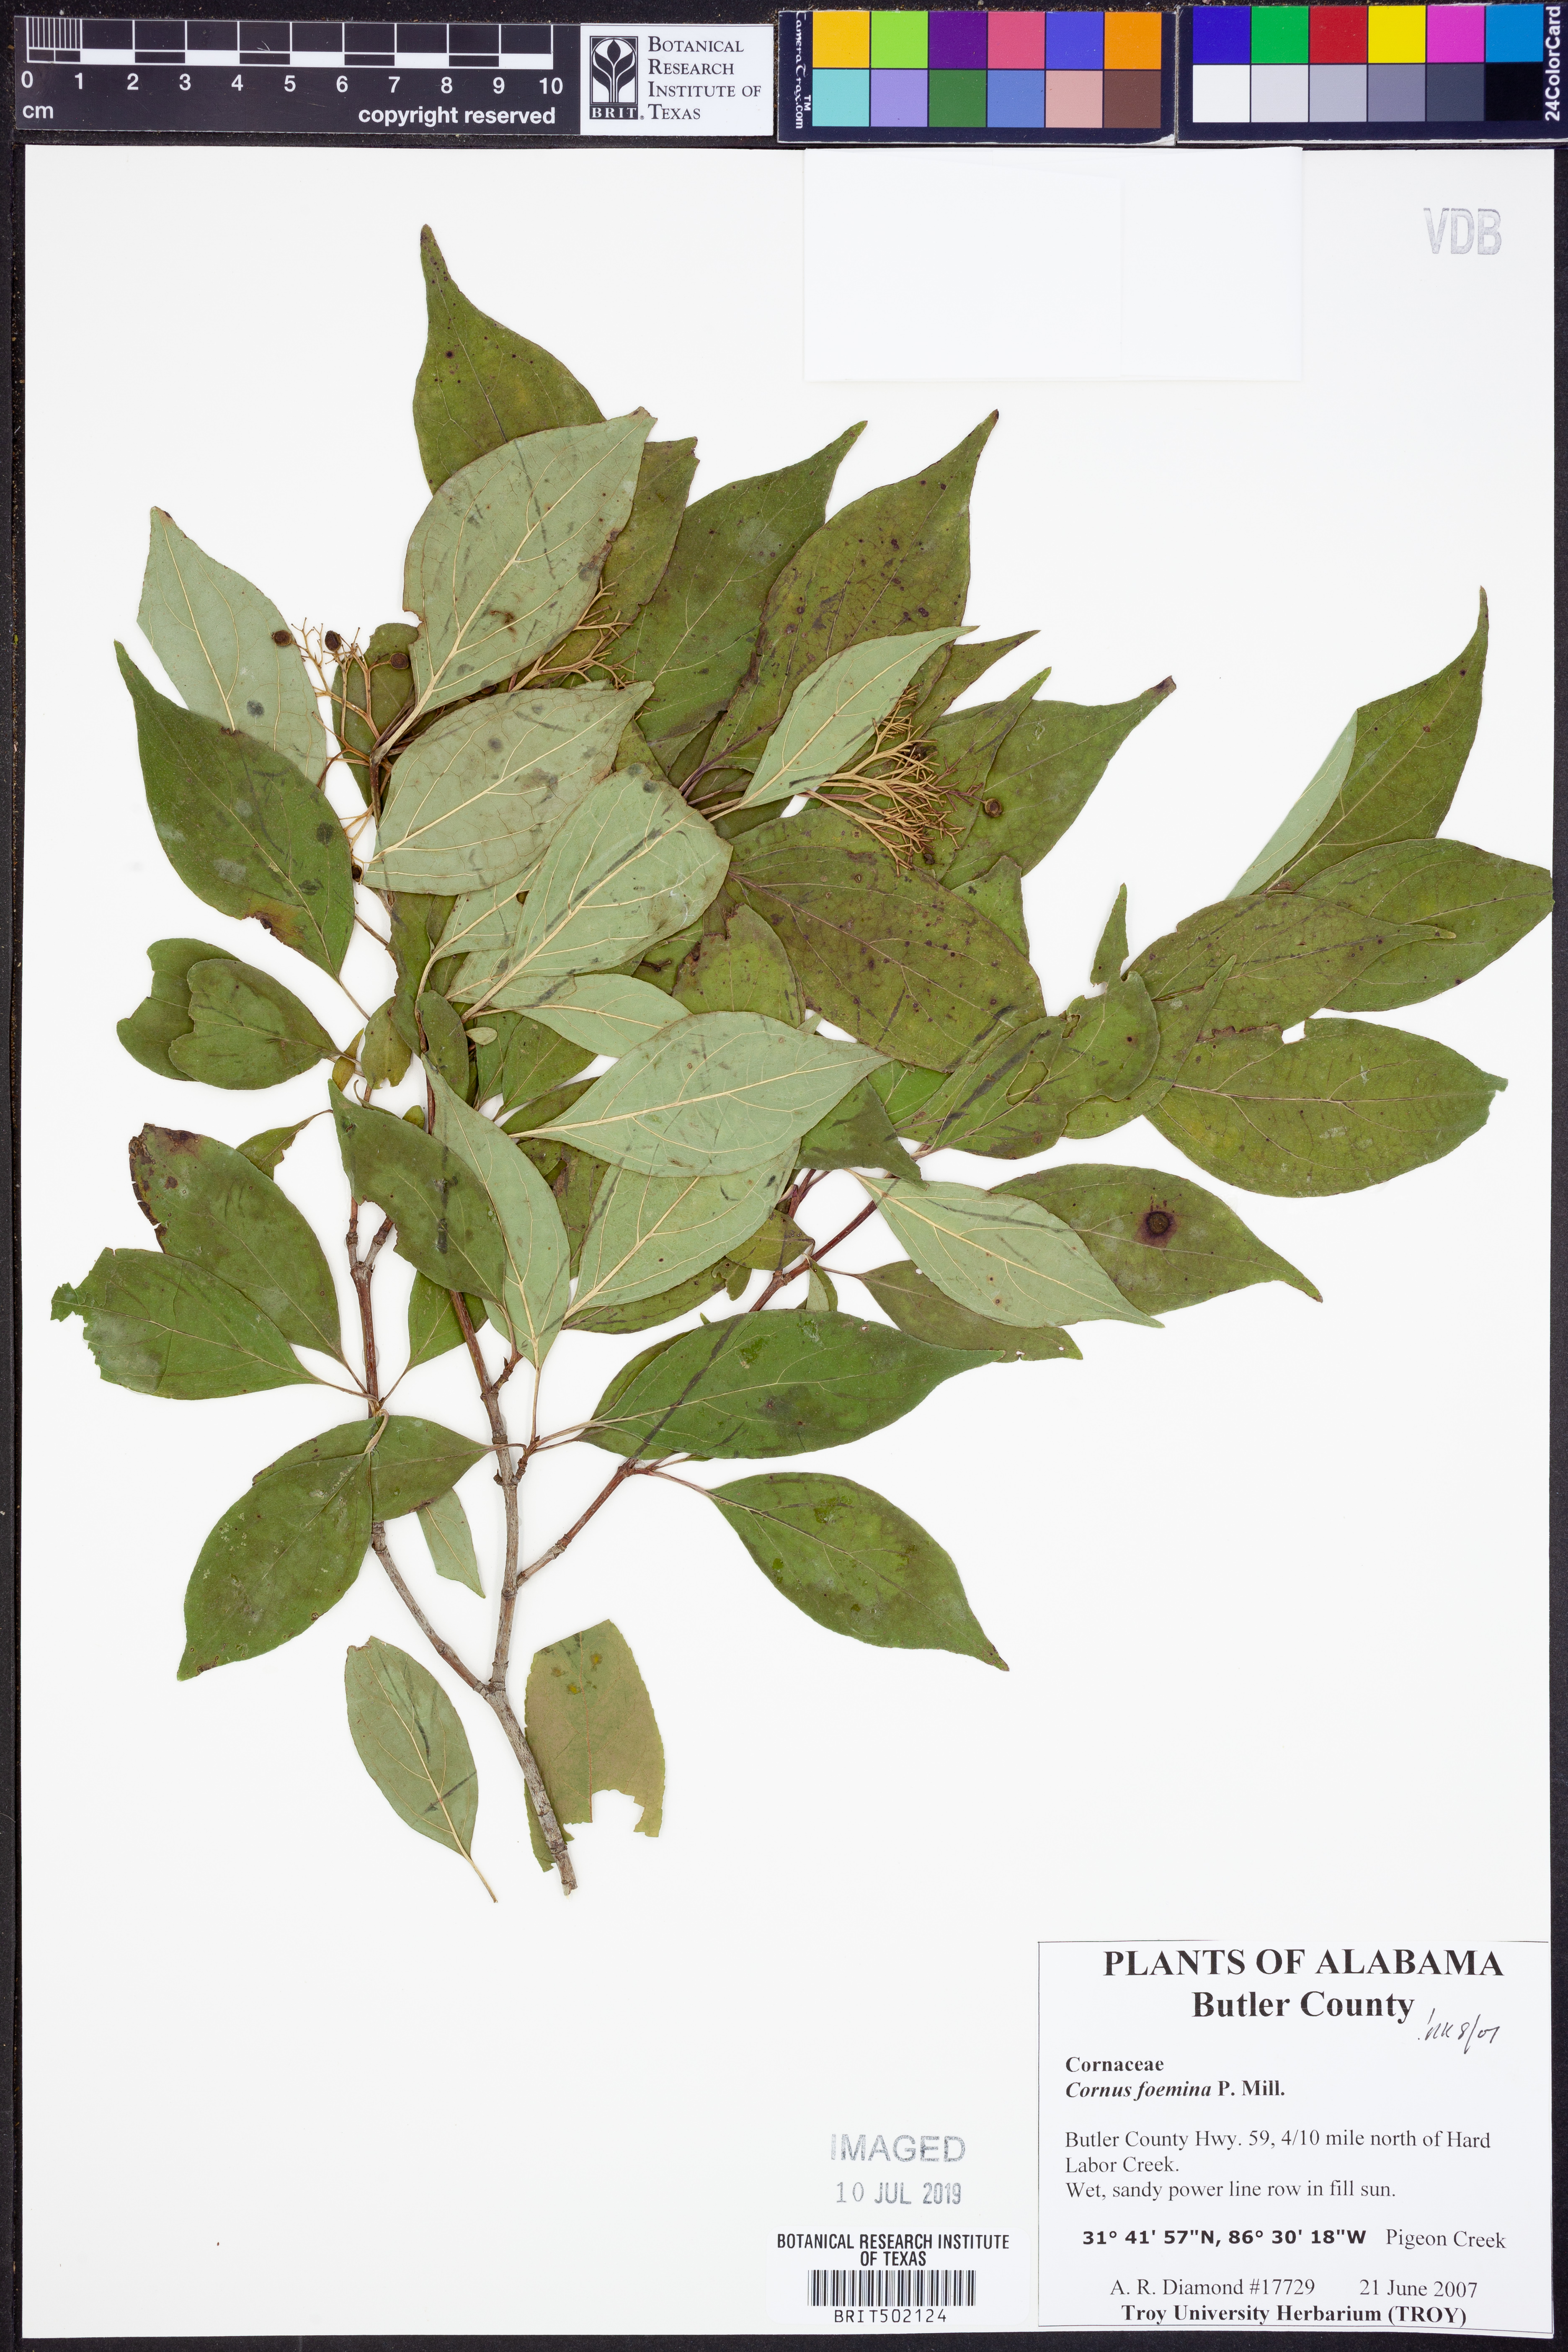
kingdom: Plantae
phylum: Tracheophyta
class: Magnoliopsida
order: Cornales
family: Cornaceae
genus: Cornus
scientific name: Cornus foemina
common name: Swamp dogwood
